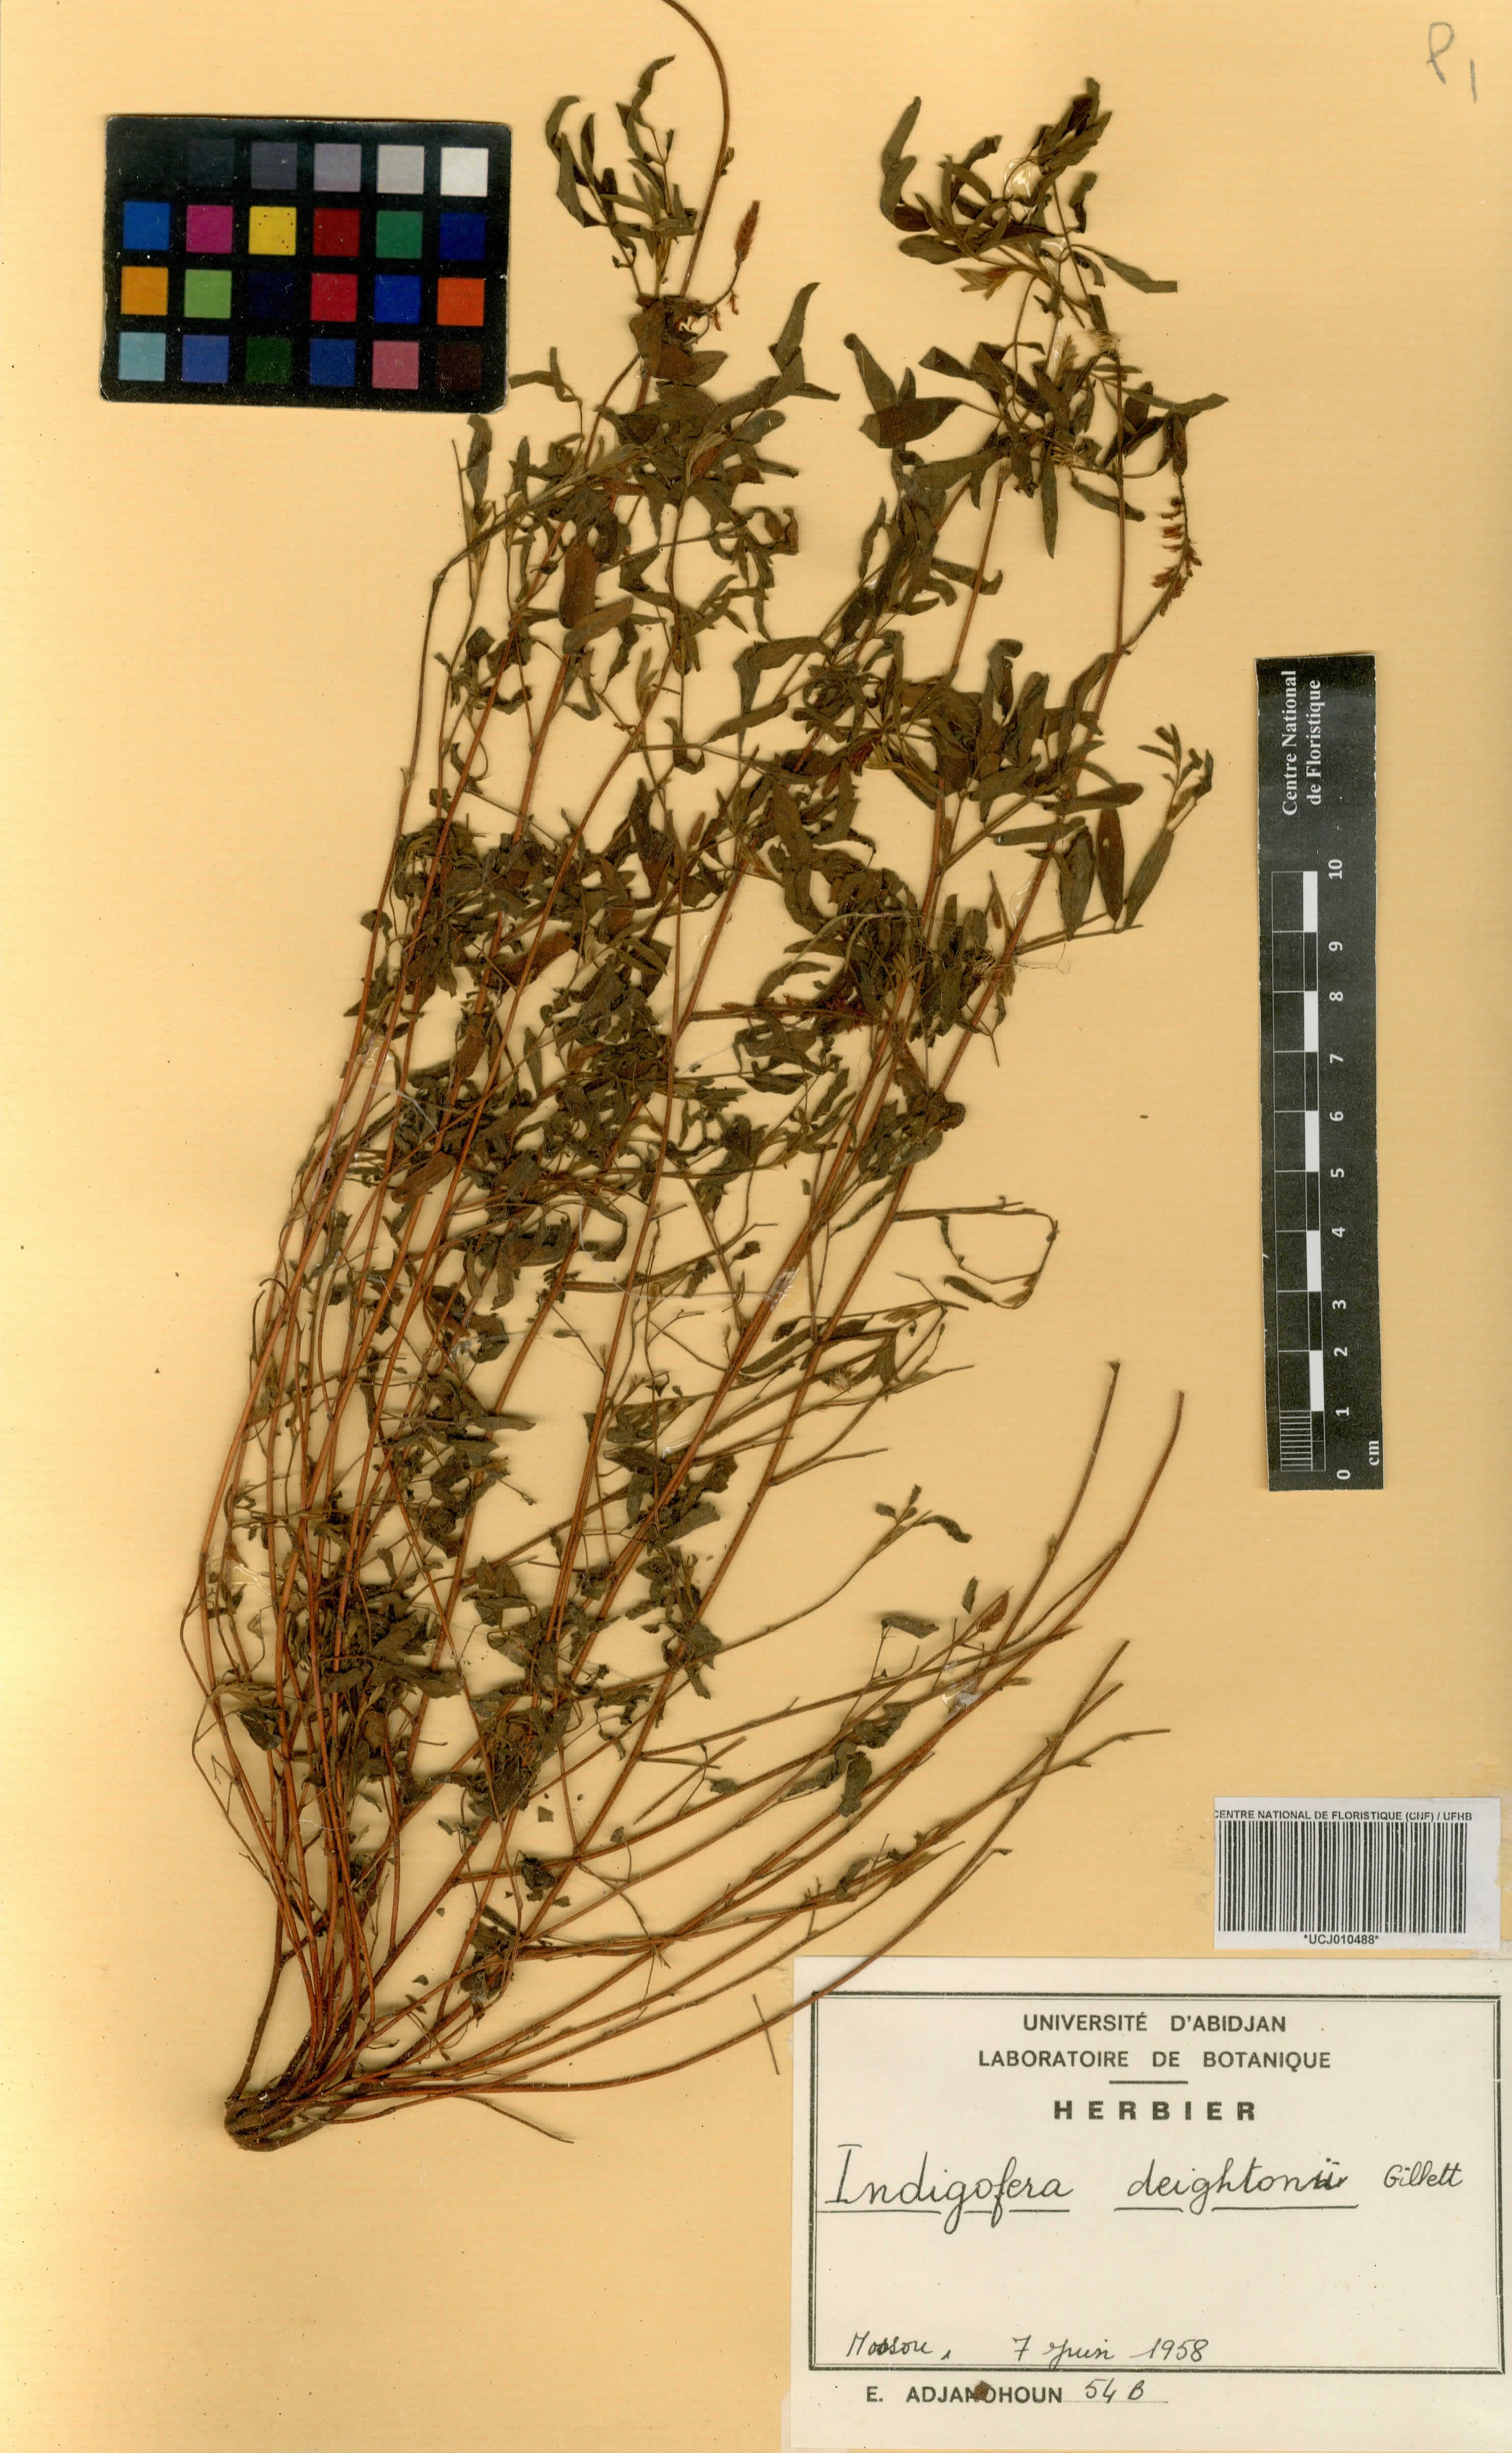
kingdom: Plantae
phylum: Tracheophyta
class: Magnoliopsida
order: Fabales
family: Fabaceae
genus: Indigofera
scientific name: Indigofera deightonii
